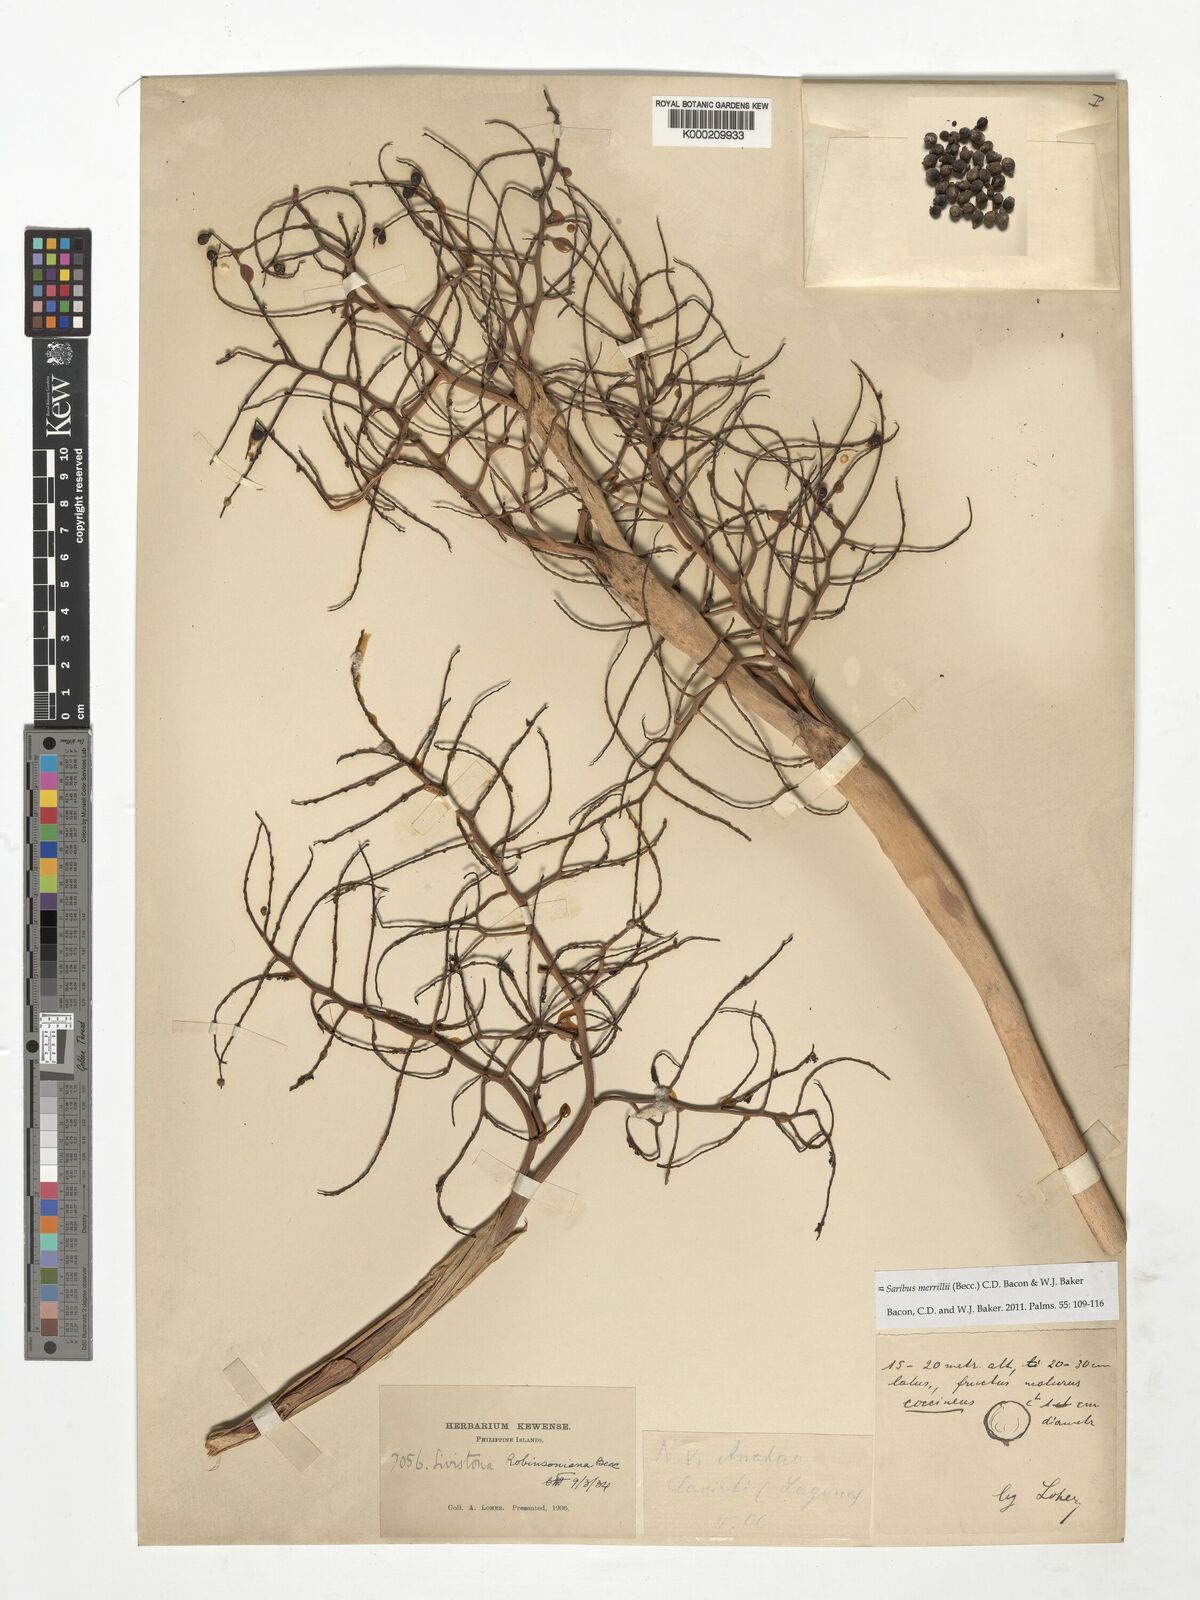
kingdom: Plantae
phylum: Tracheophyta
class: Liliopsida
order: Arecales
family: Arecaceae
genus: Saribus
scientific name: Saribus rotundifolius
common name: Palm
